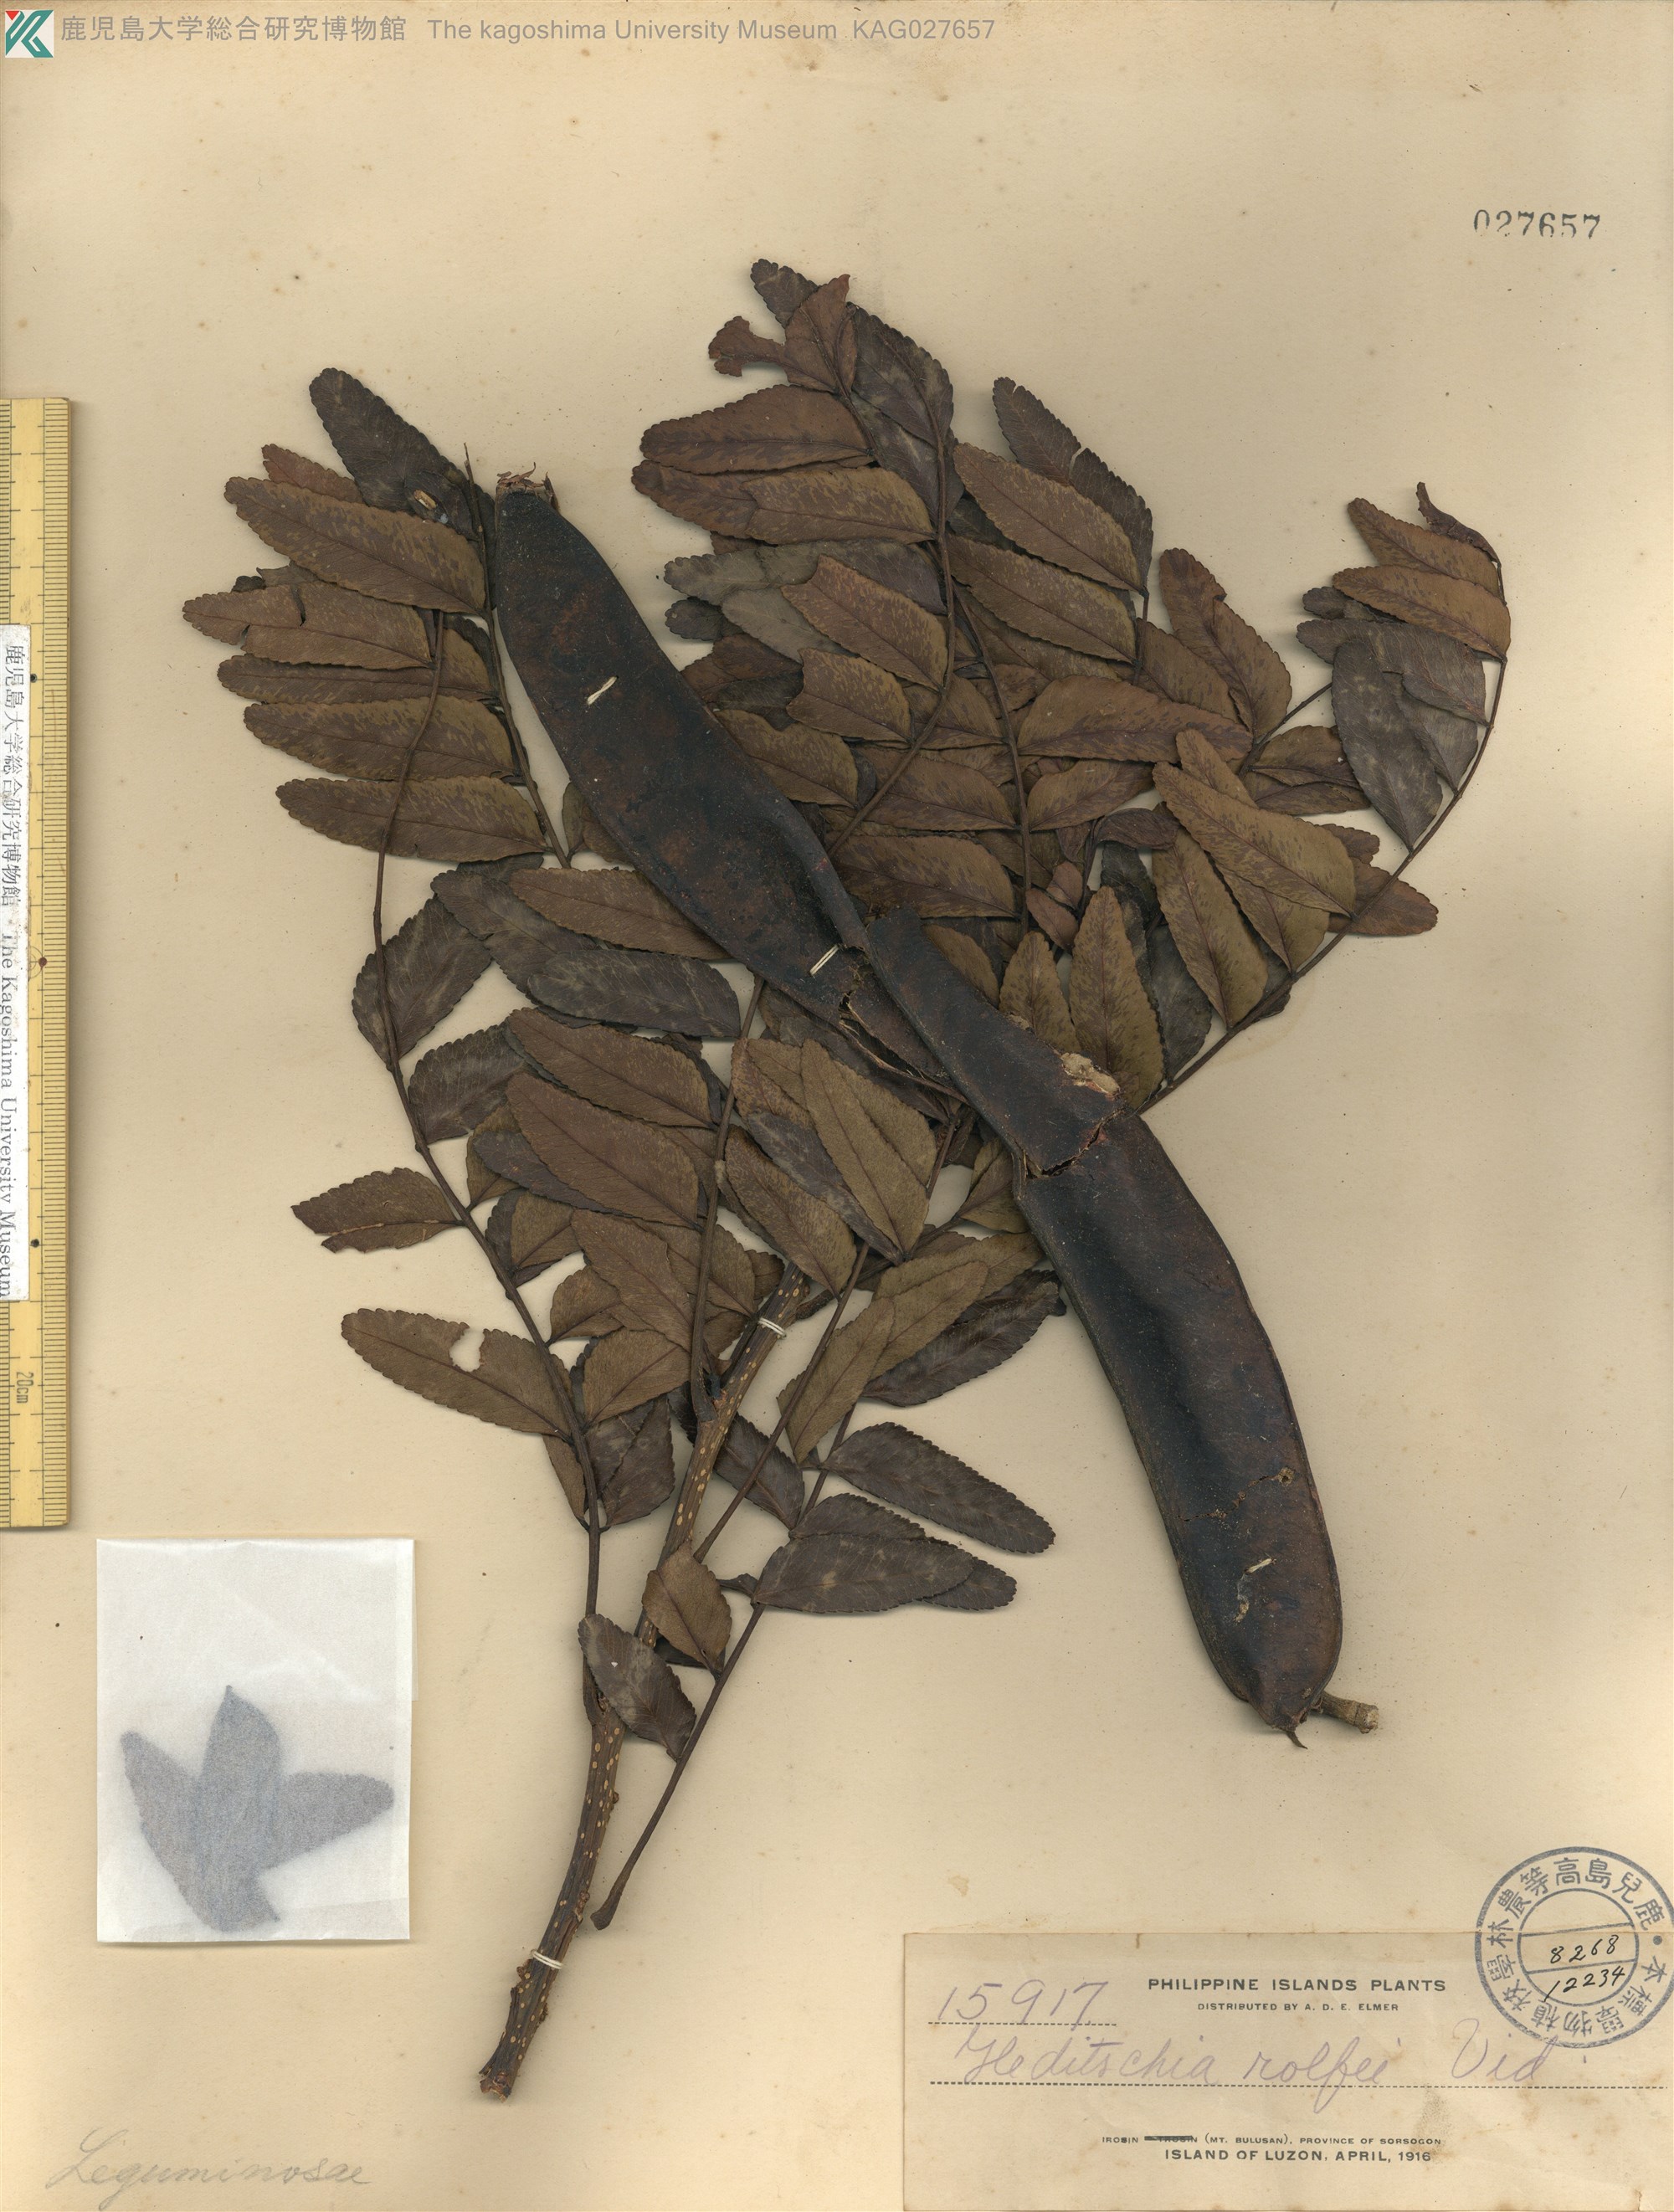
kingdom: Plantae
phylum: Tracheophyta
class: Magnoliopsida
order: Fabales
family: Fabaceae
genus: Gleditsia
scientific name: Gleditsia rolfei
